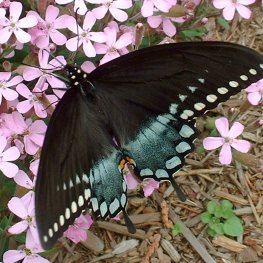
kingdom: Animalia
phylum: Arthropoda
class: Insecta
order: Lepidoptera
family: Papilionidae
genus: Pterourus
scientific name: Pterourus troilus
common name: Spicebush Swallowtail
